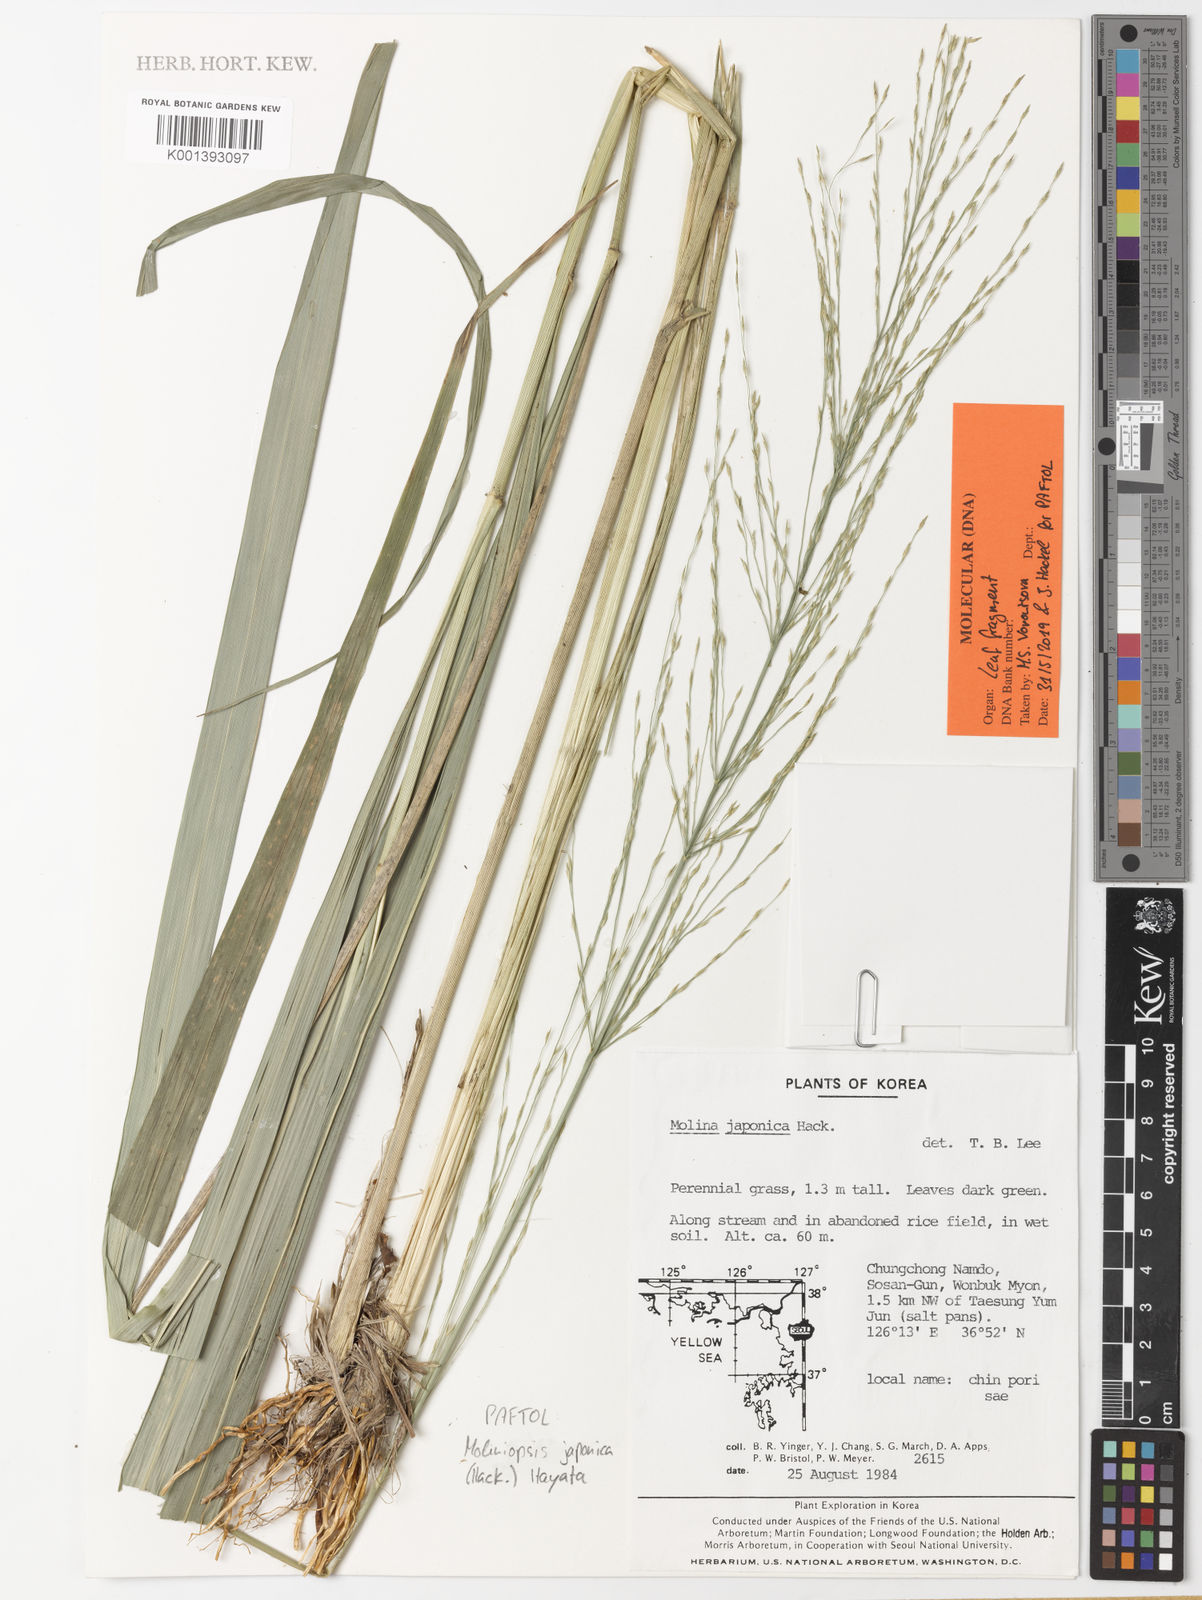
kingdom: Plantae
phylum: Tracheophyta
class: Liliopsida
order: Poales
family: Poaceae
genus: Moliniopsis
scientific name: Moliniopsis japonica
